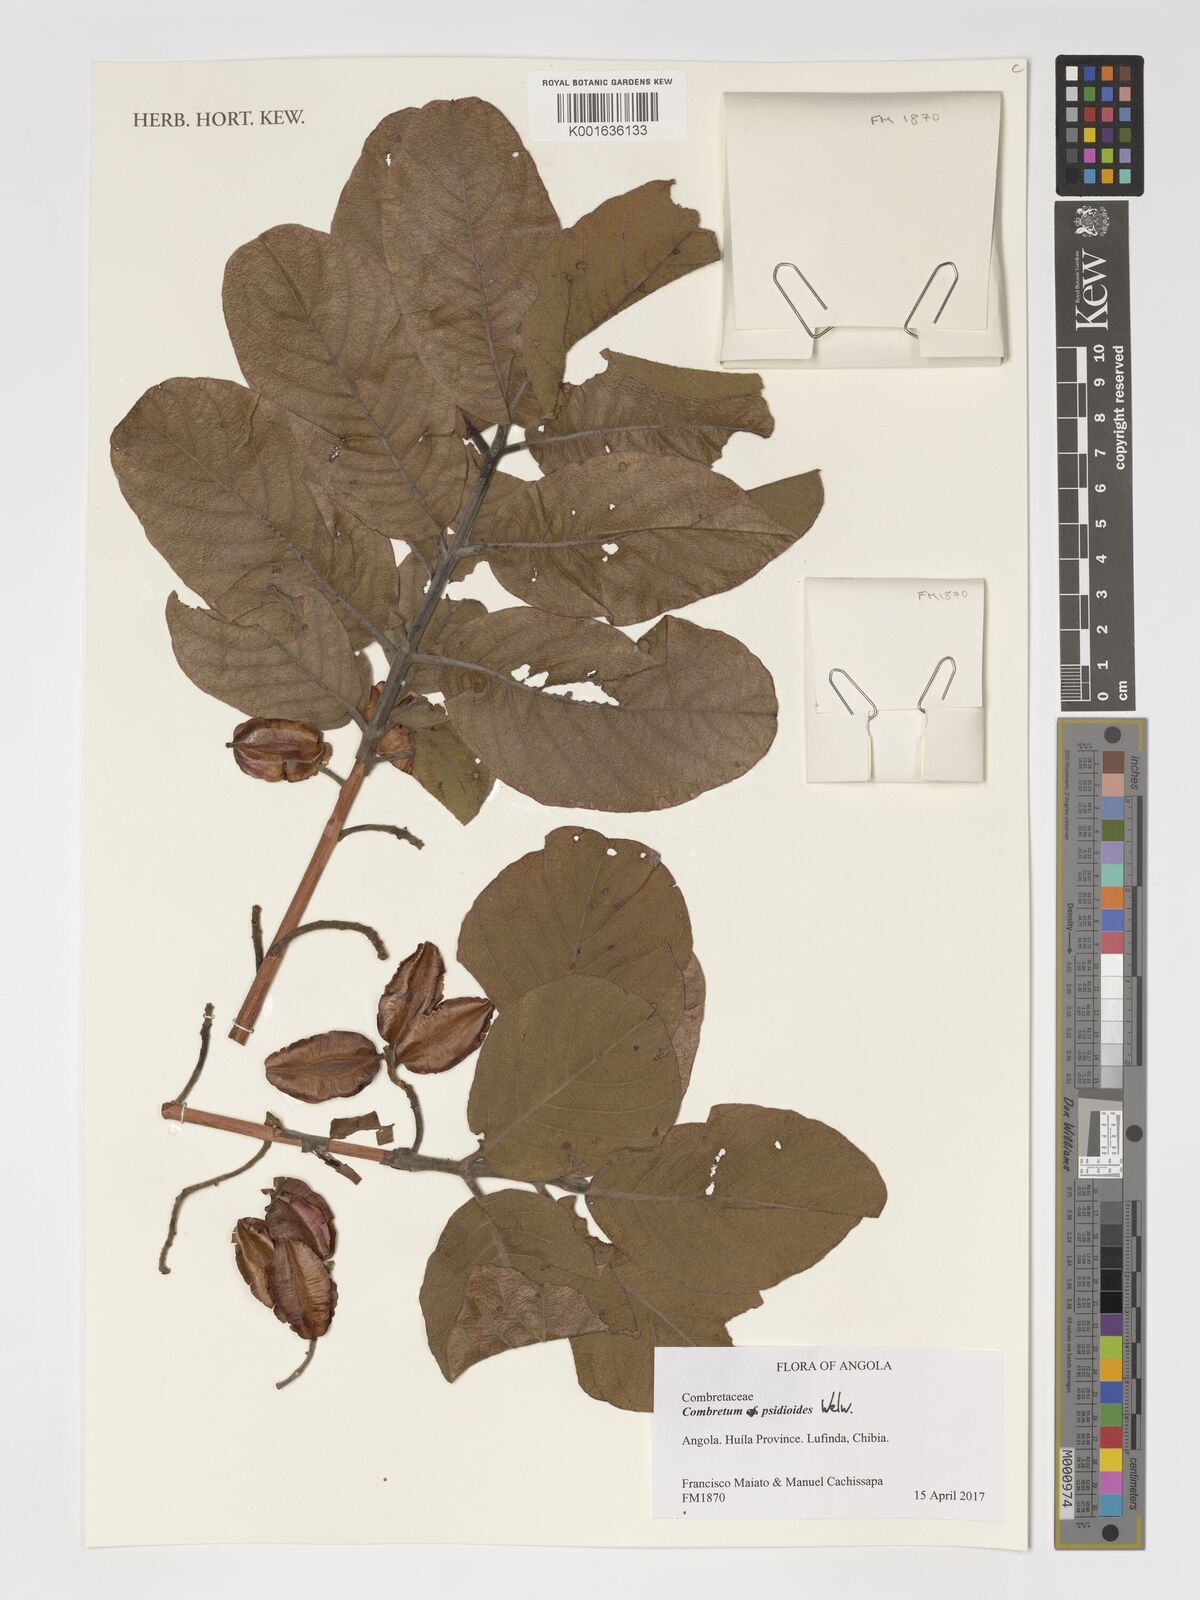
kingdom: Plantae
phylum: Tracheophyta
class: Magnoliopsida
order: Myrtales
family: Combretaceae
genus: Combretum
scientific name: Combretum psidioides
